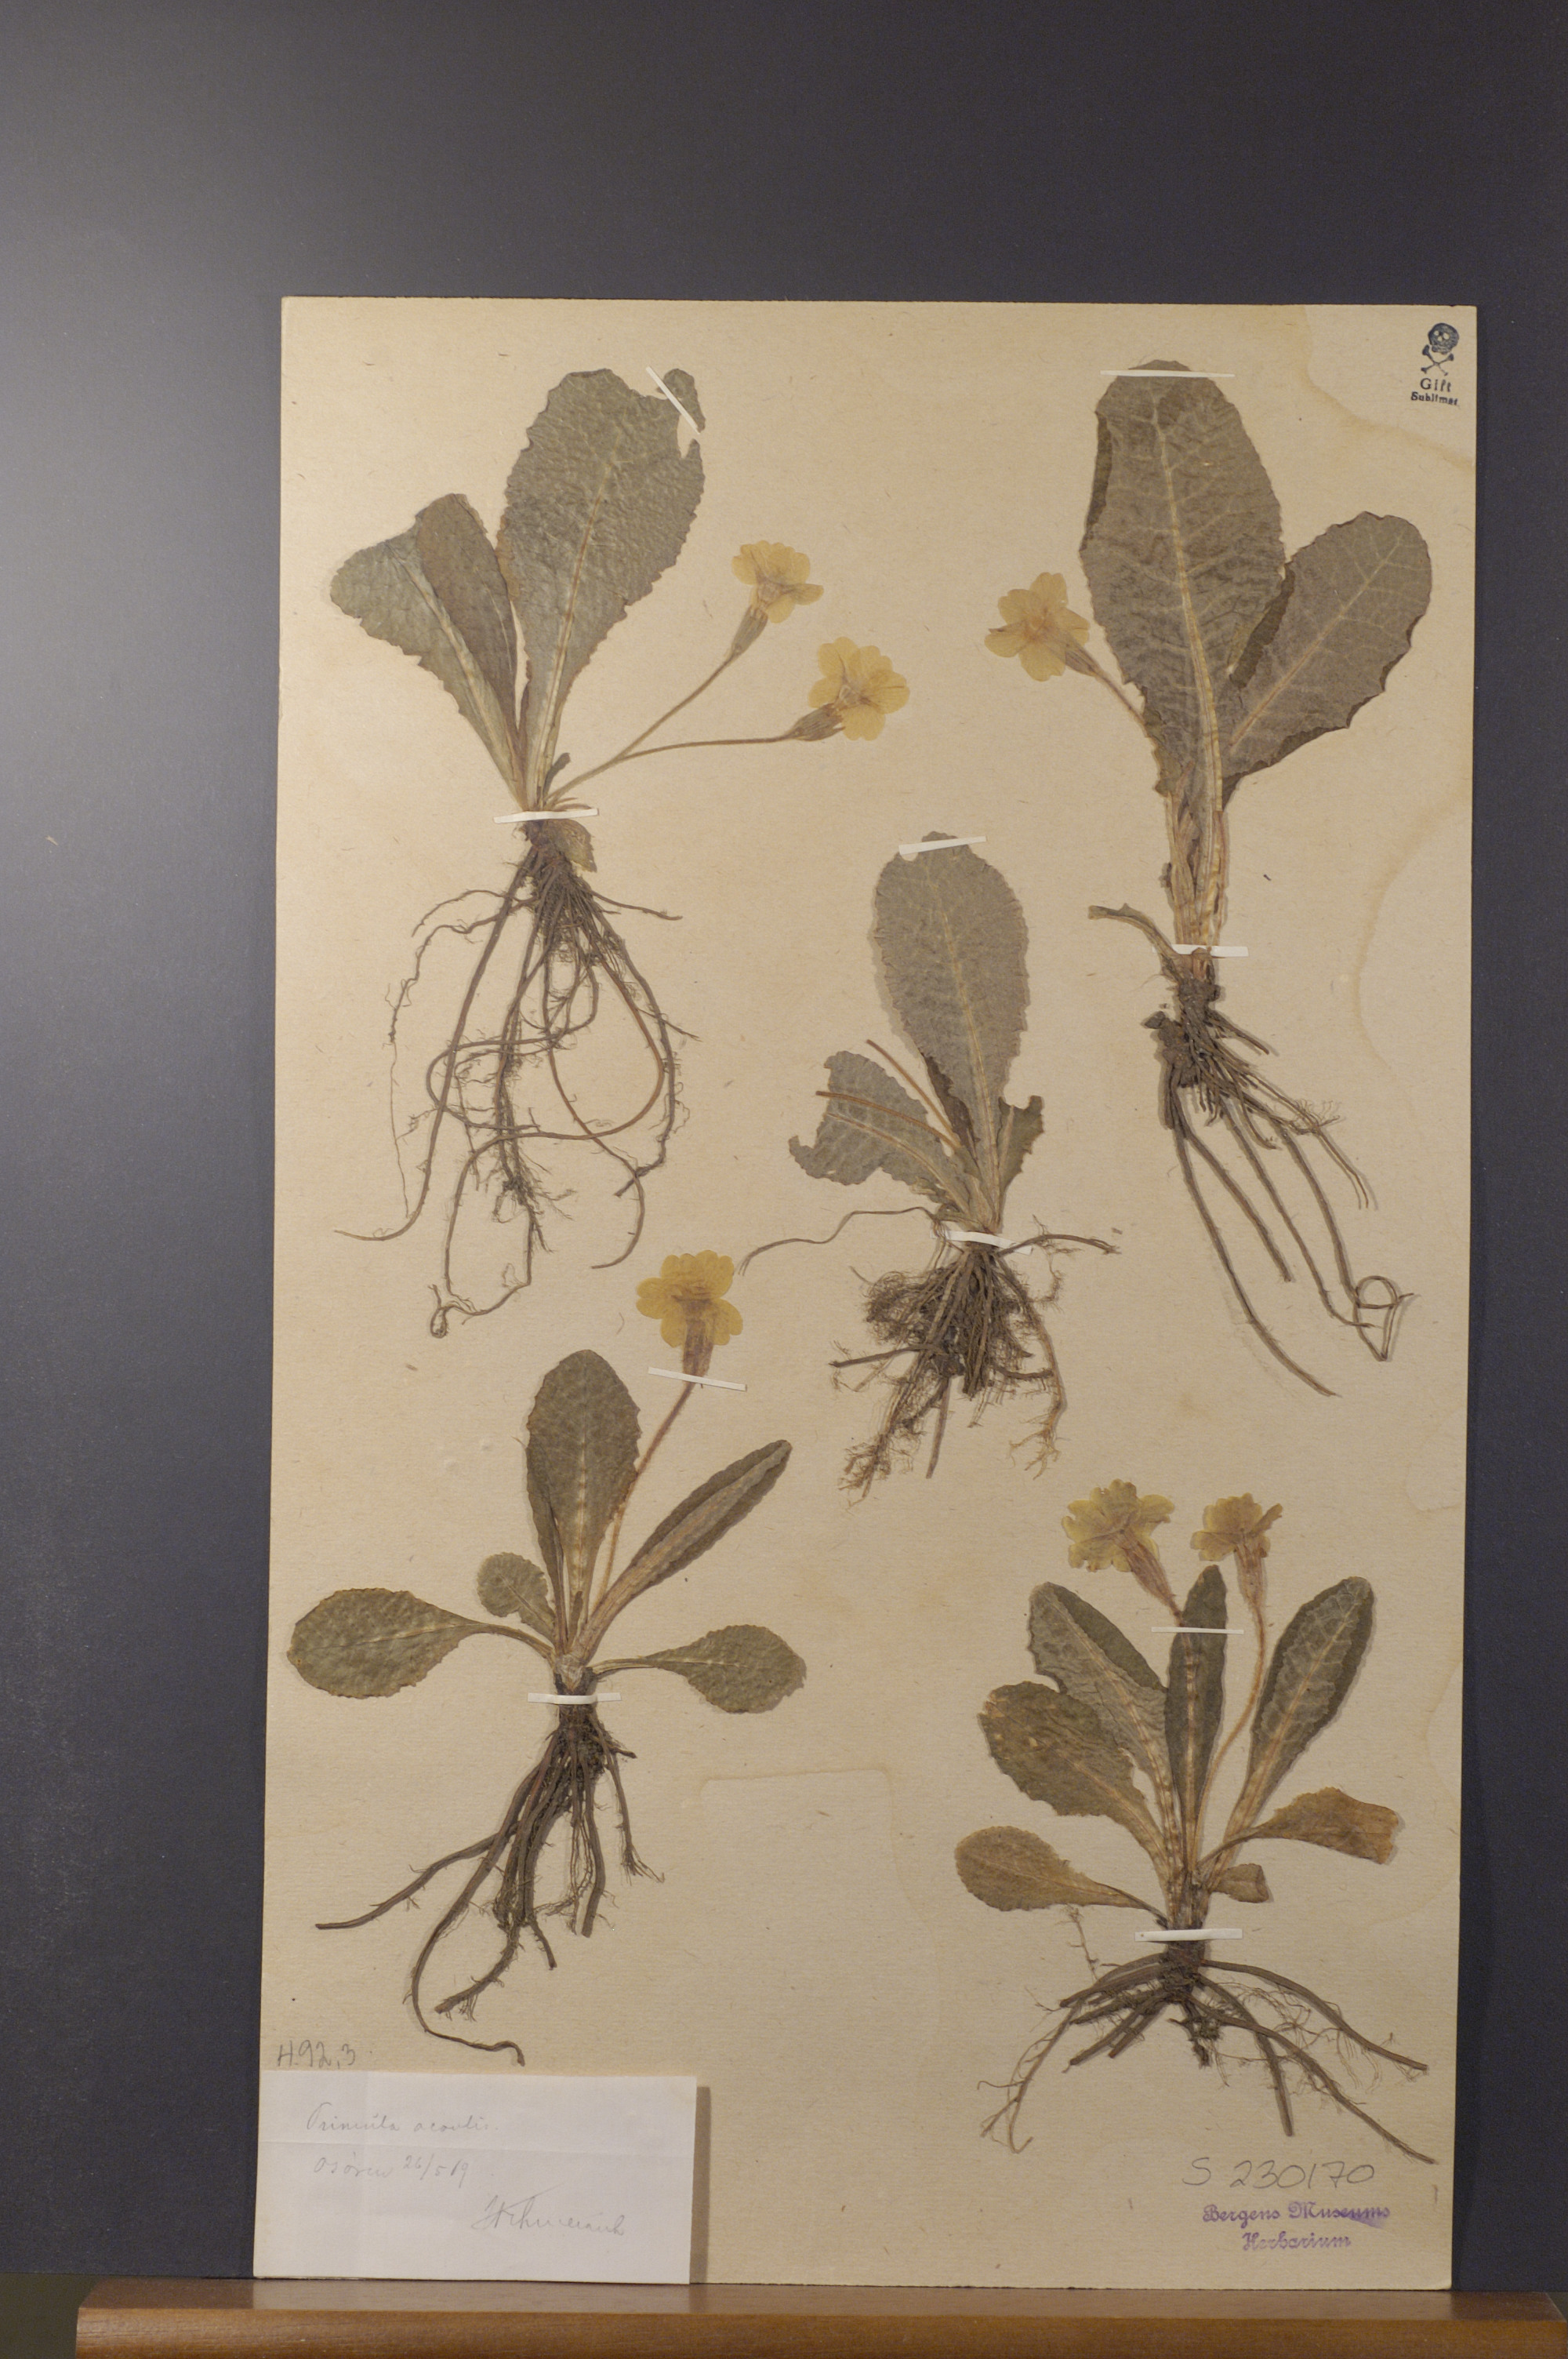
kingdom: Plantae
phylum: Tracheophyta
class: Magnoliopsida
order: Ericales
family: Primulaceae
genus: Primula
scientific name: Primula vulgaris
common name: Primrose
